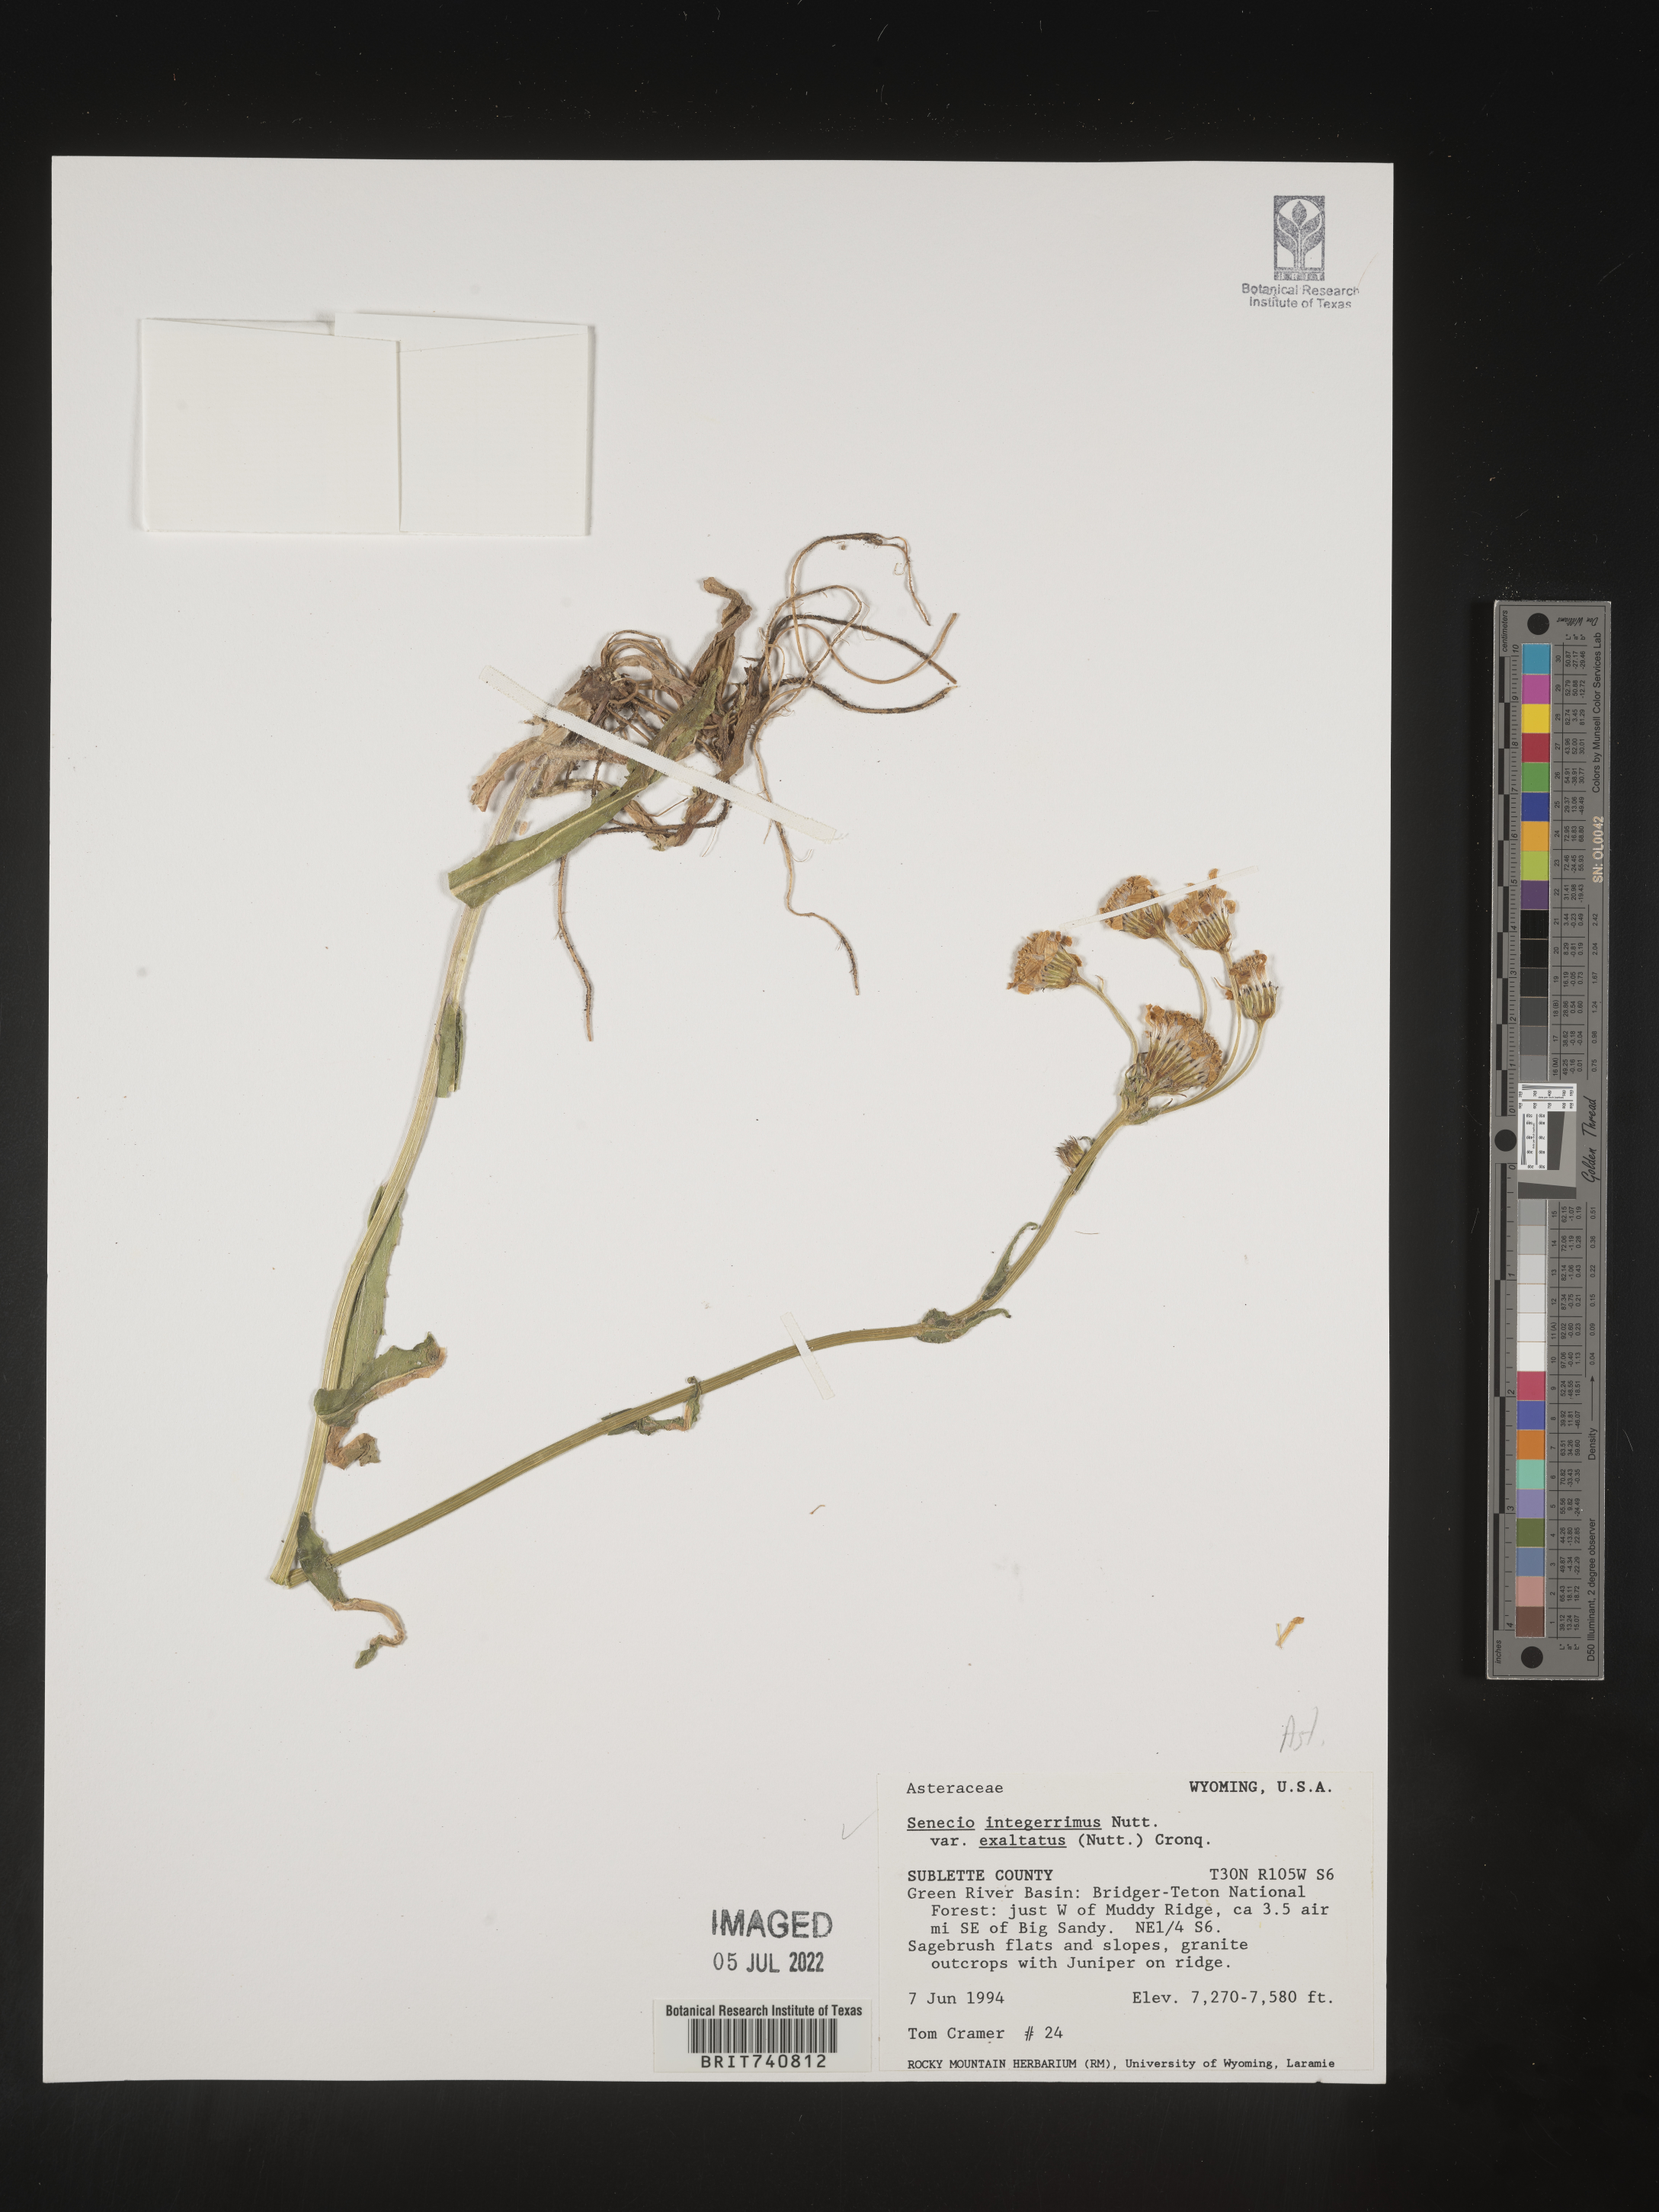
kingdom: Plantae
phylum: Tracheophyta
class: Magnoliopsida
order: Asterales
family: Asteraceae
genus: Senecio
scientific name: Senecio integerrimus
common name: Gaugeplant
